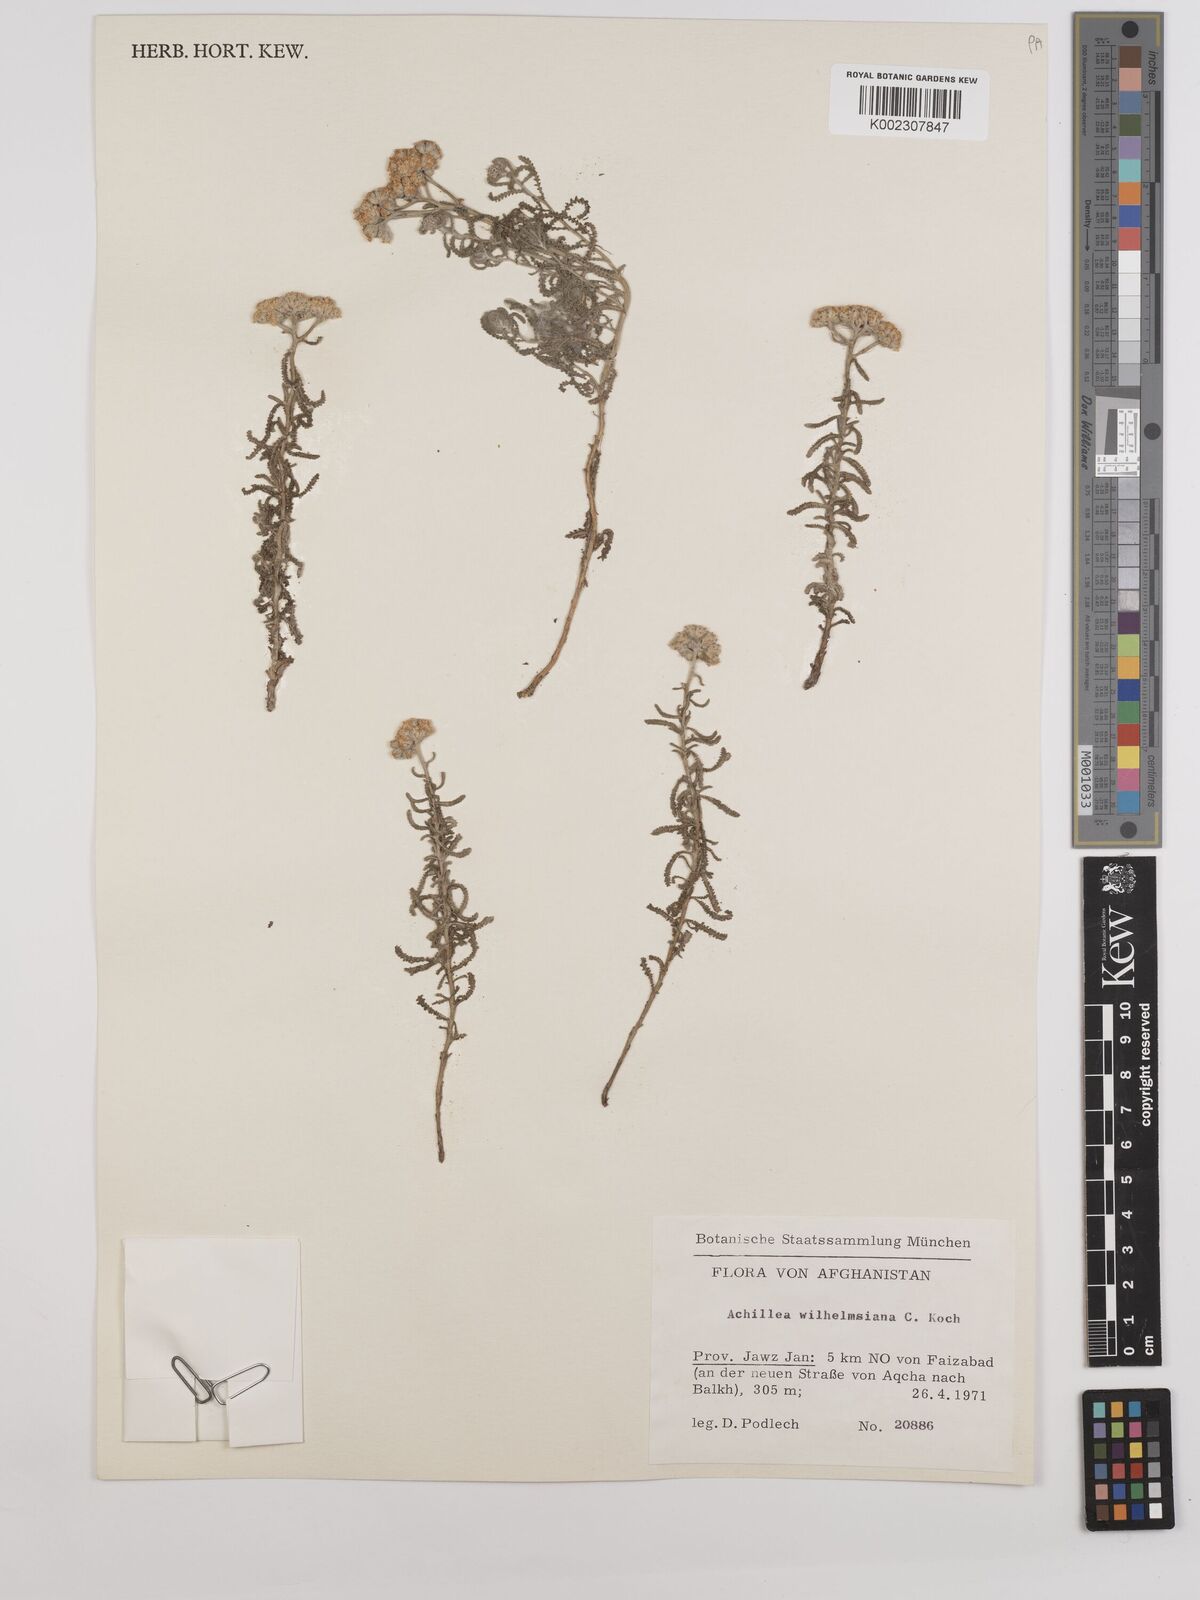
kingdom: Plantae
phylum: Tracheophyta
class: Magnoliopsida
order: Asterales
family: Asteraceae
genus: Achillea
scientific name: Achillea cretica
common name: Chamomile-leaved lavender-cotton
